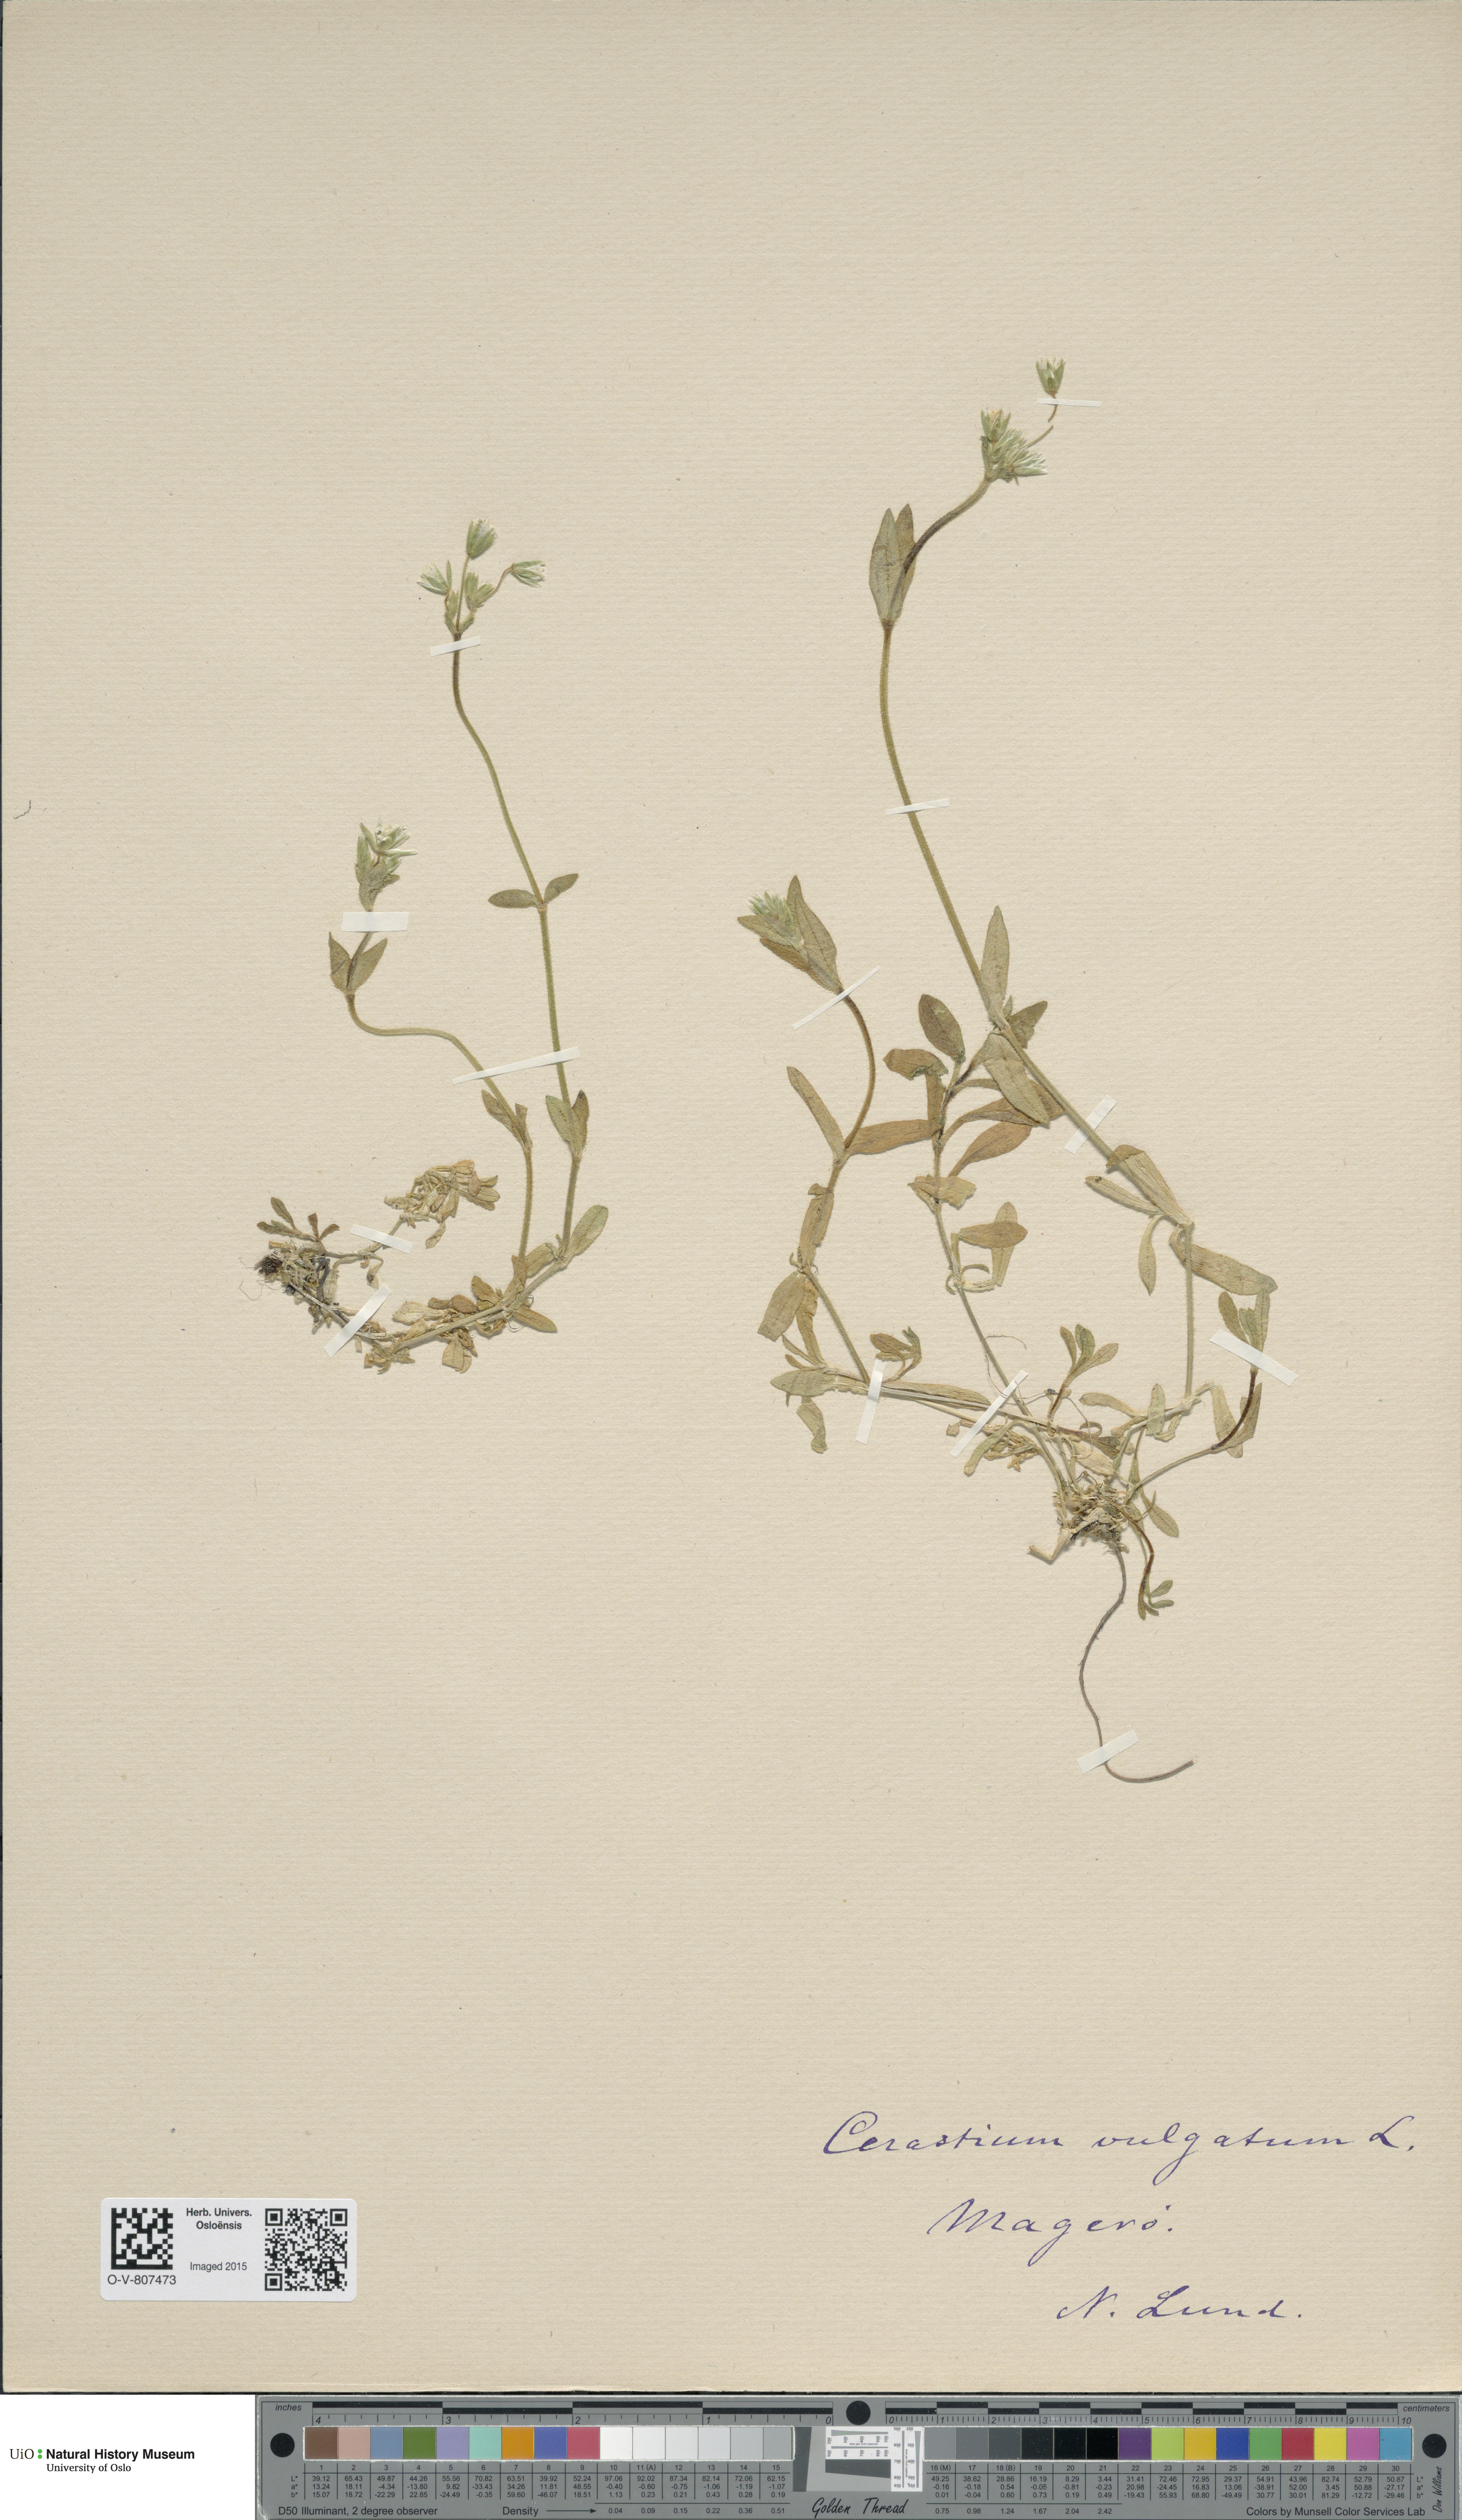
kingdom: Plantae
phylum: Tracheophyta
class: Magnoliopsida
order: Caryophyllales
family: Caryophyllaceae
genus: Cerastium
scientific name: Cerastium holosteoides
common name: Big chickweed
